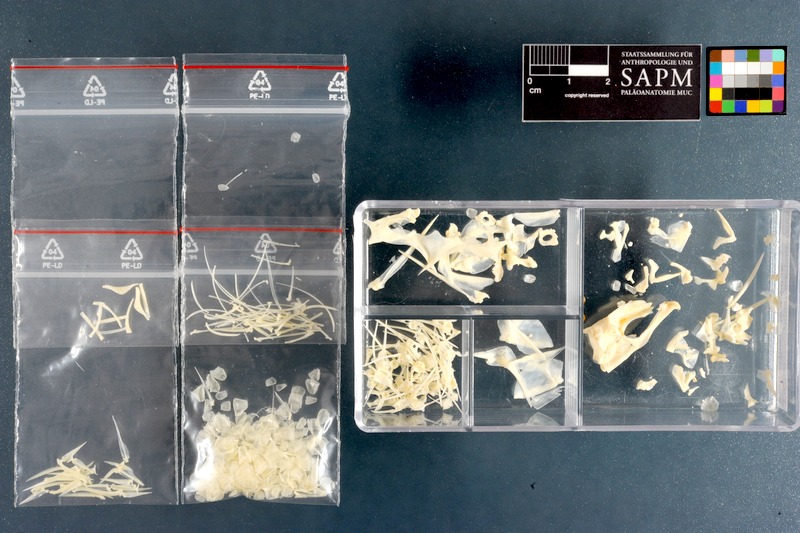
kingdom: Animalia
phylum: Chordata
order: Perciformes
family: Cheilodactylidae
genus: Chirodactylus
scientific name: Chirodactylus brachydactylus
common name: Butterfish
